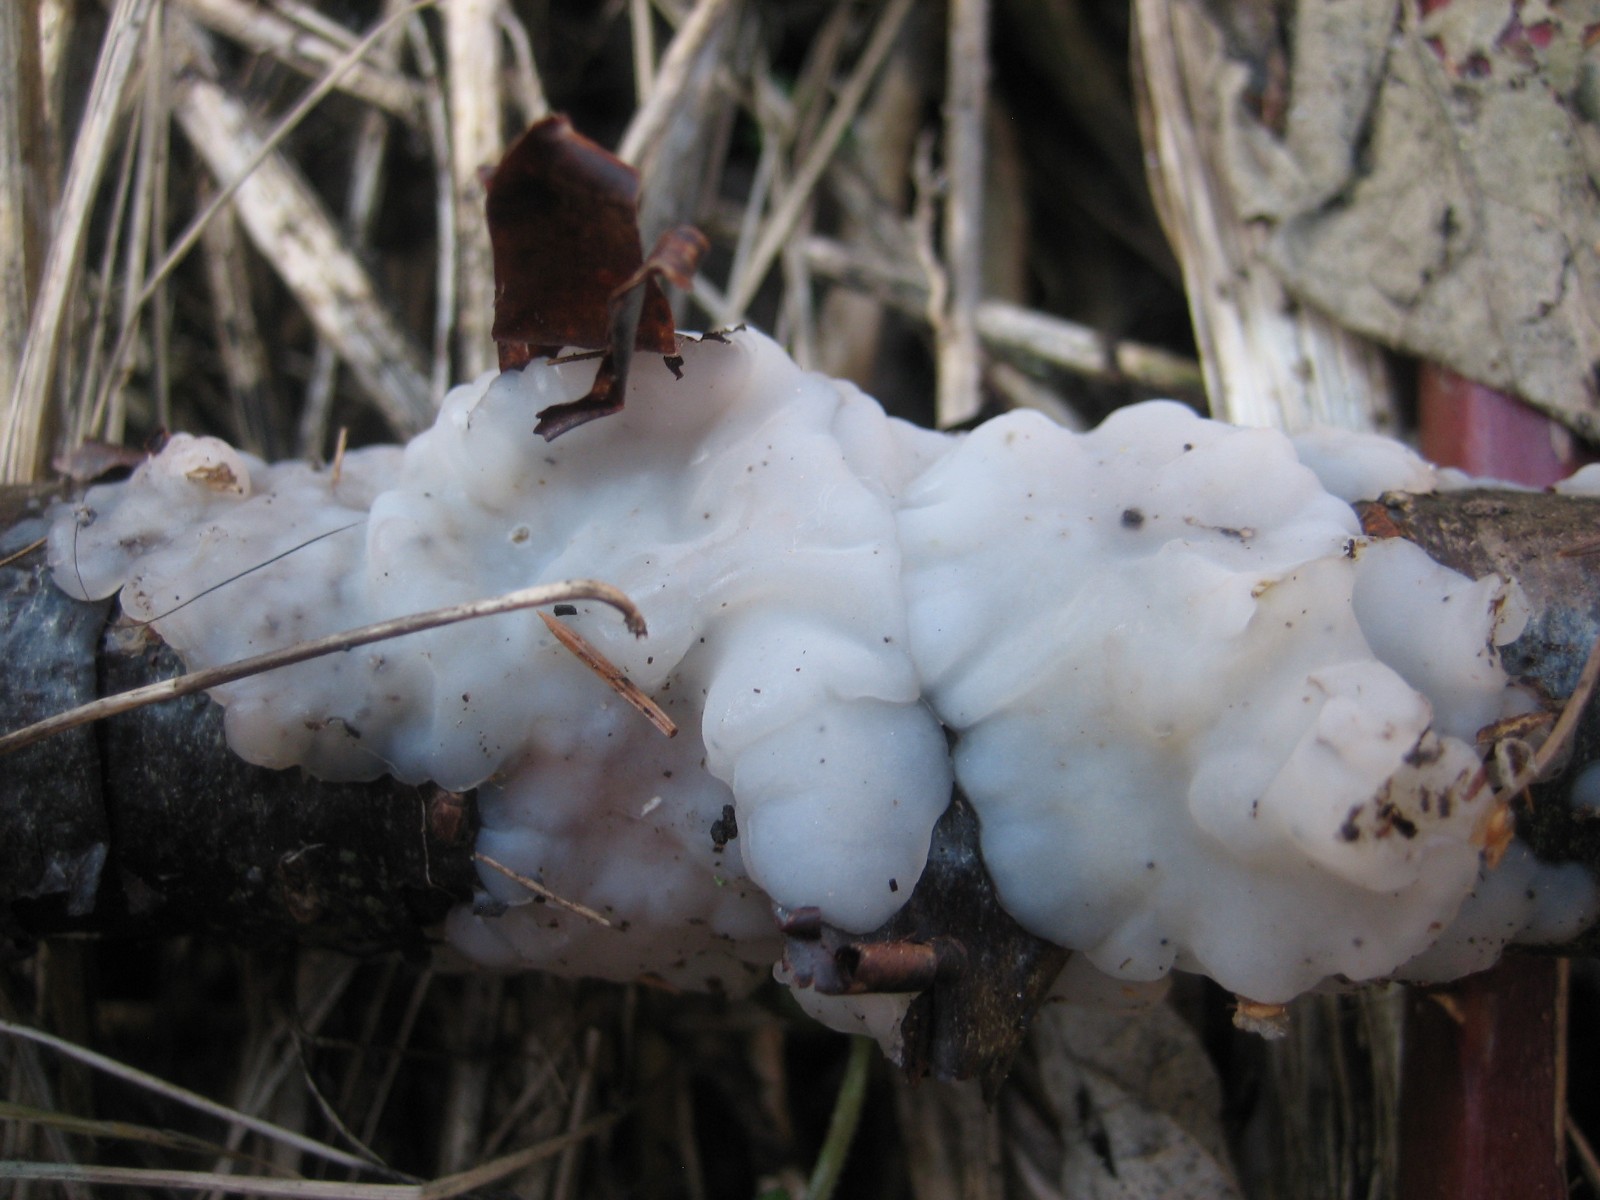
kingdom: Fungi
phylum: Basidiomycota
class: Agaricomycetes
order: Auriculariales
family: Auriculariaceae
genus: Exidia
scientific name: Exidia thuretiana
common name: hvidlig bævretop
